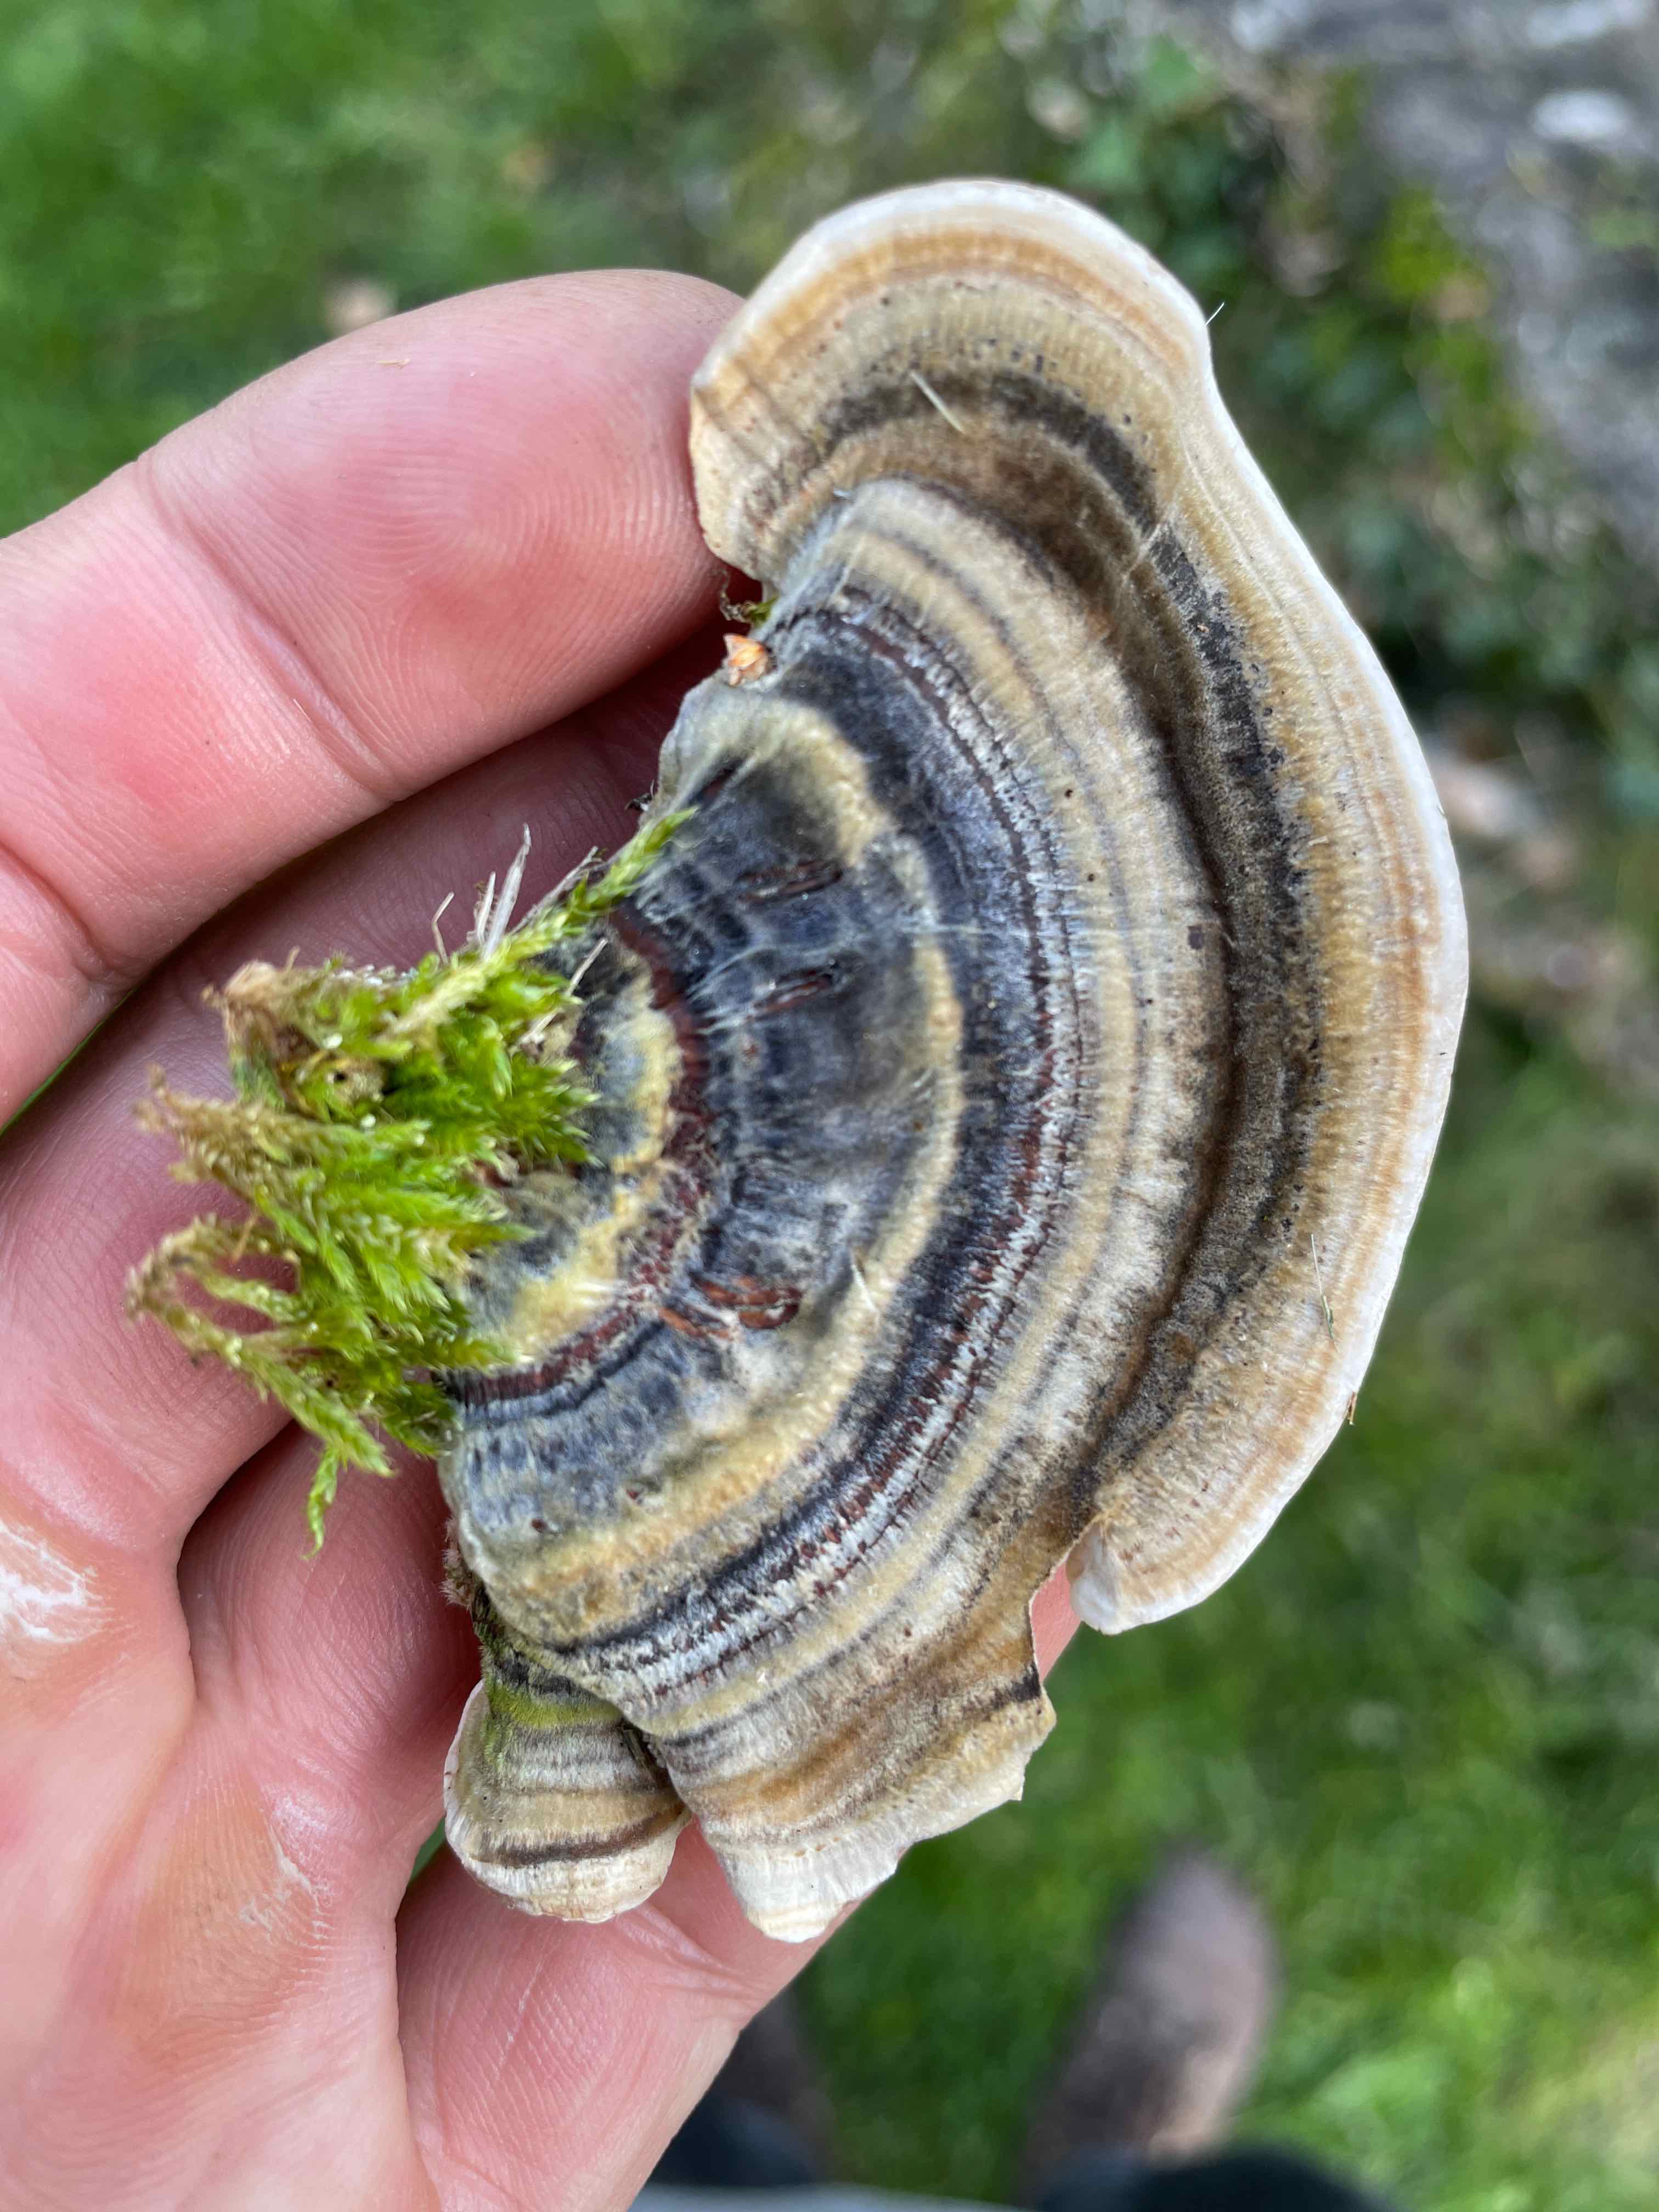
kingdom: Fungi
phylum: Basidiomycota
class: Agaricomycetes
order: Polyporales
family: Polyporaceae
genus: Trametes
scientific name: Trametes versicolor
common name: broget læderporesvamp
